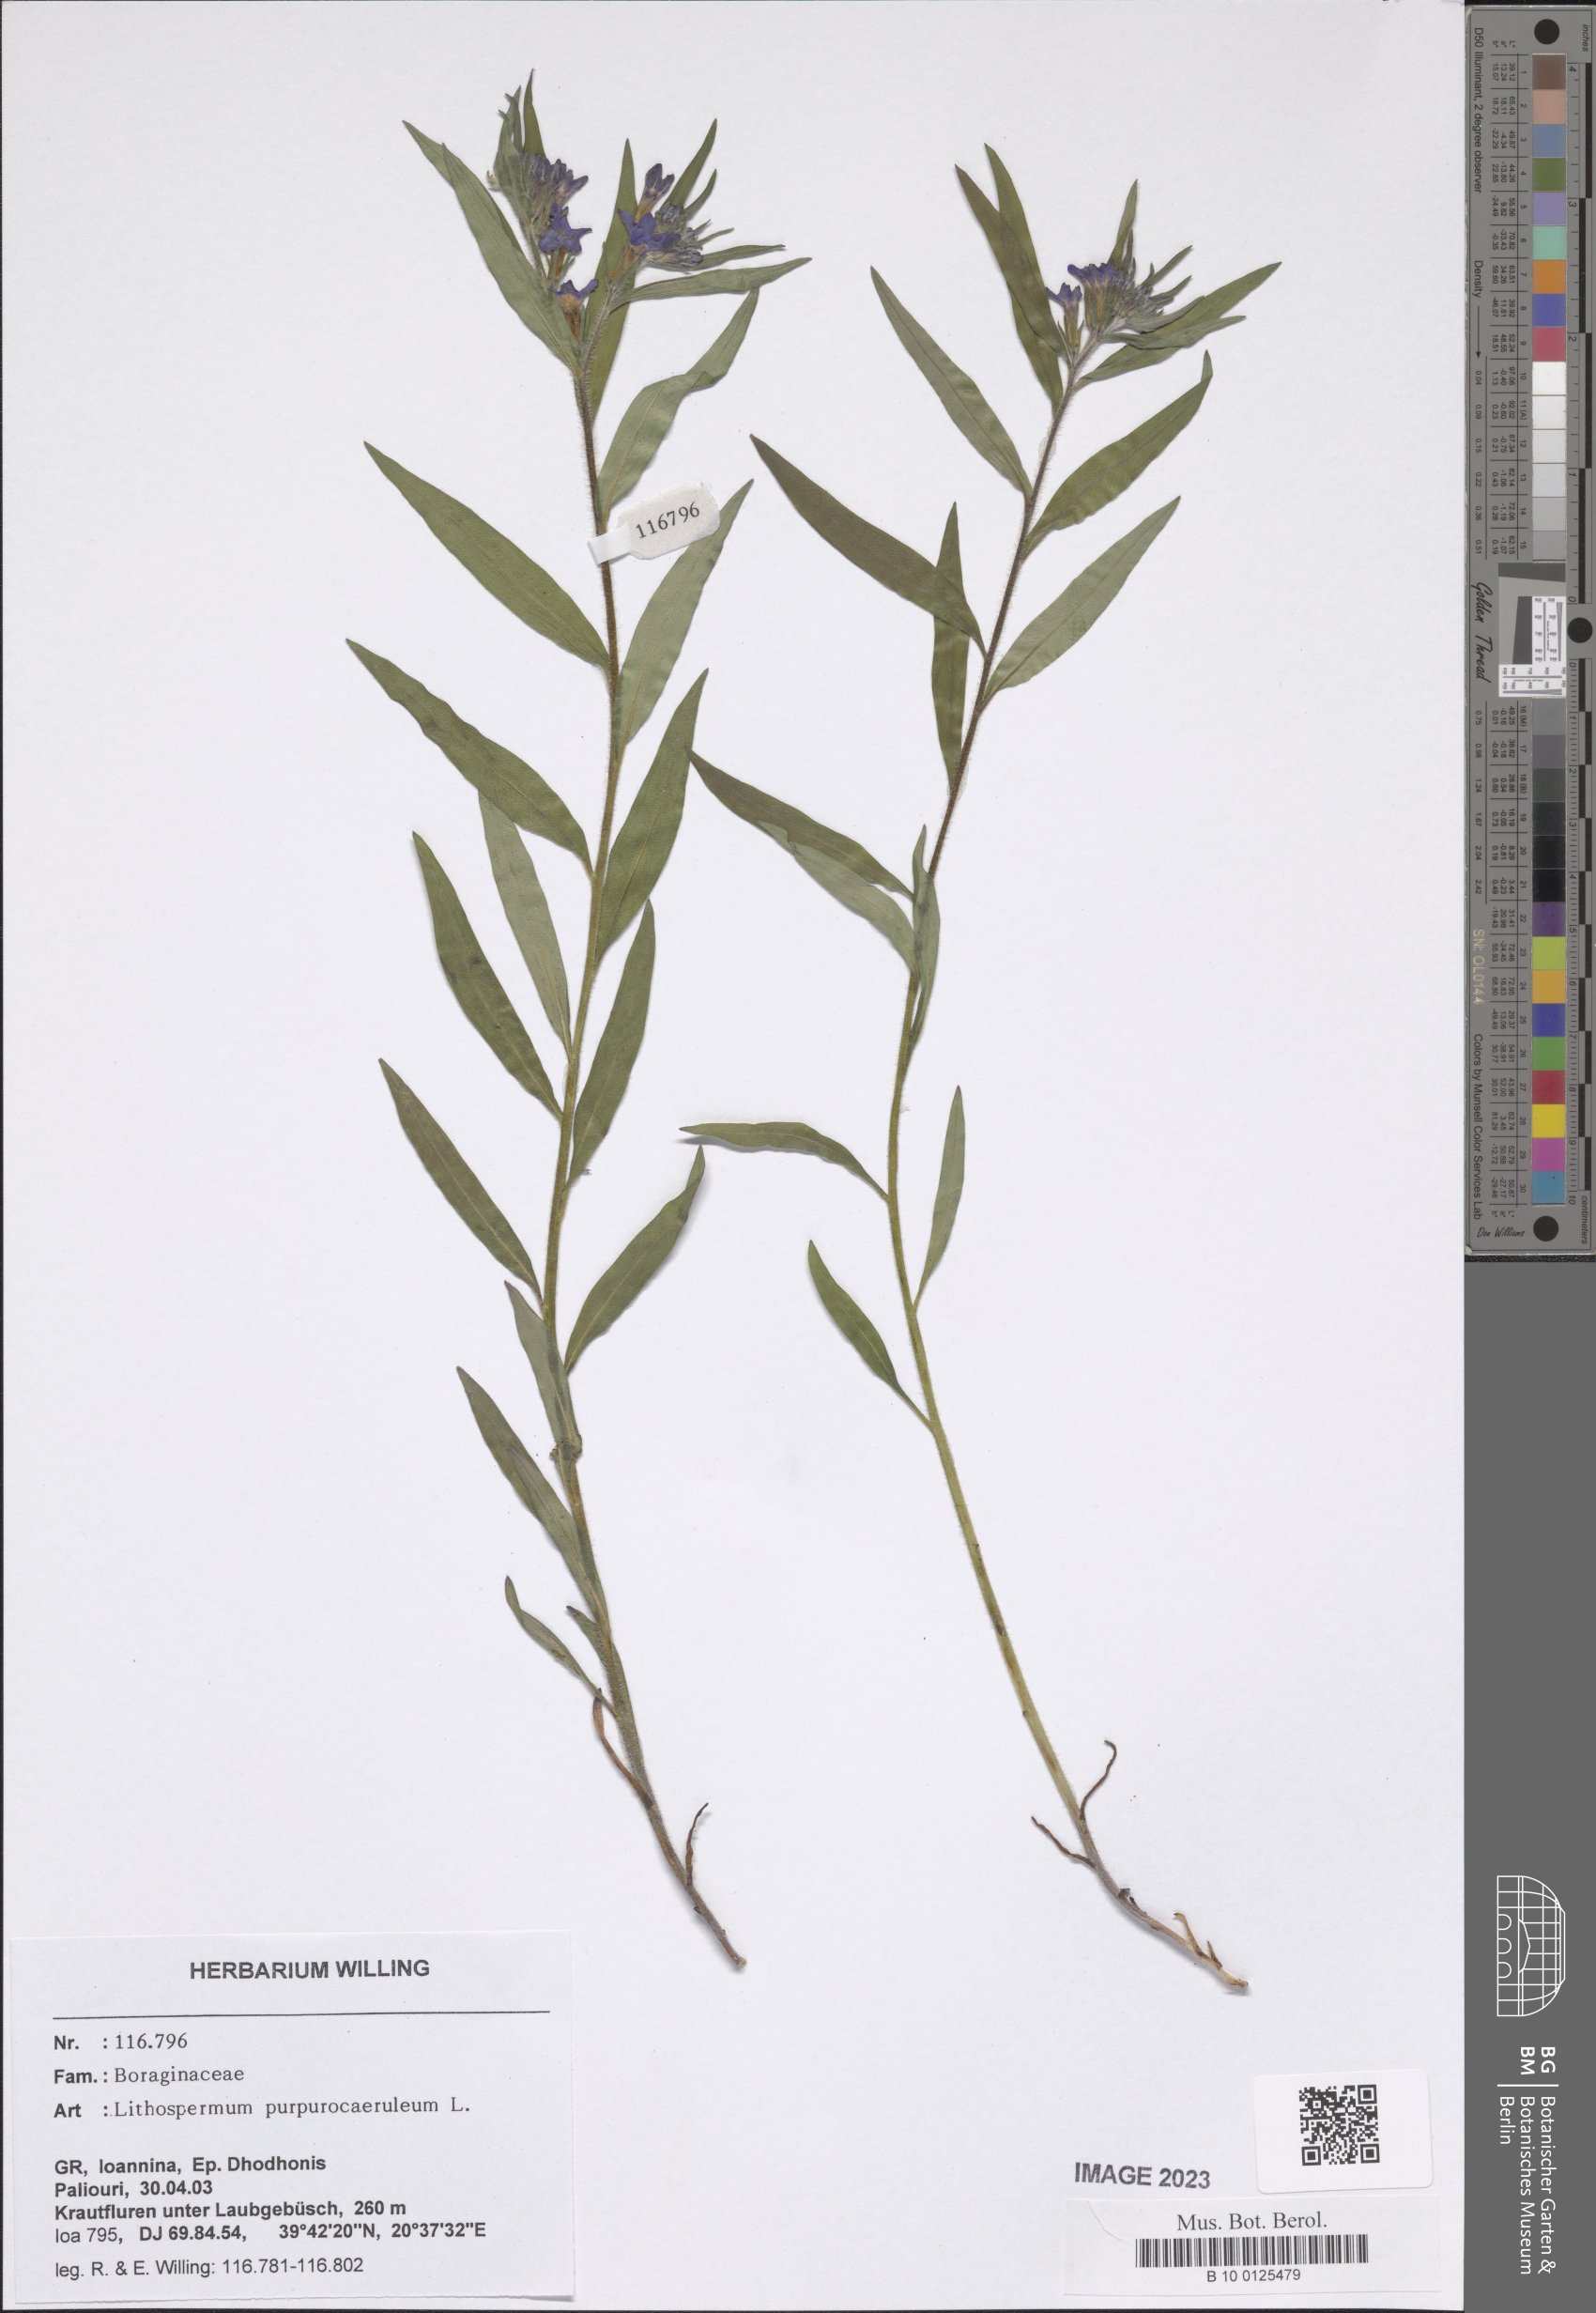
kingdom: Plantae
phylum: Tracheophyta
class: Magnoliopsida
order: Boraginales
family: Boraginaceae
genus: Aegonychon
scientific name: Aegonychon purpurocaeruleum
